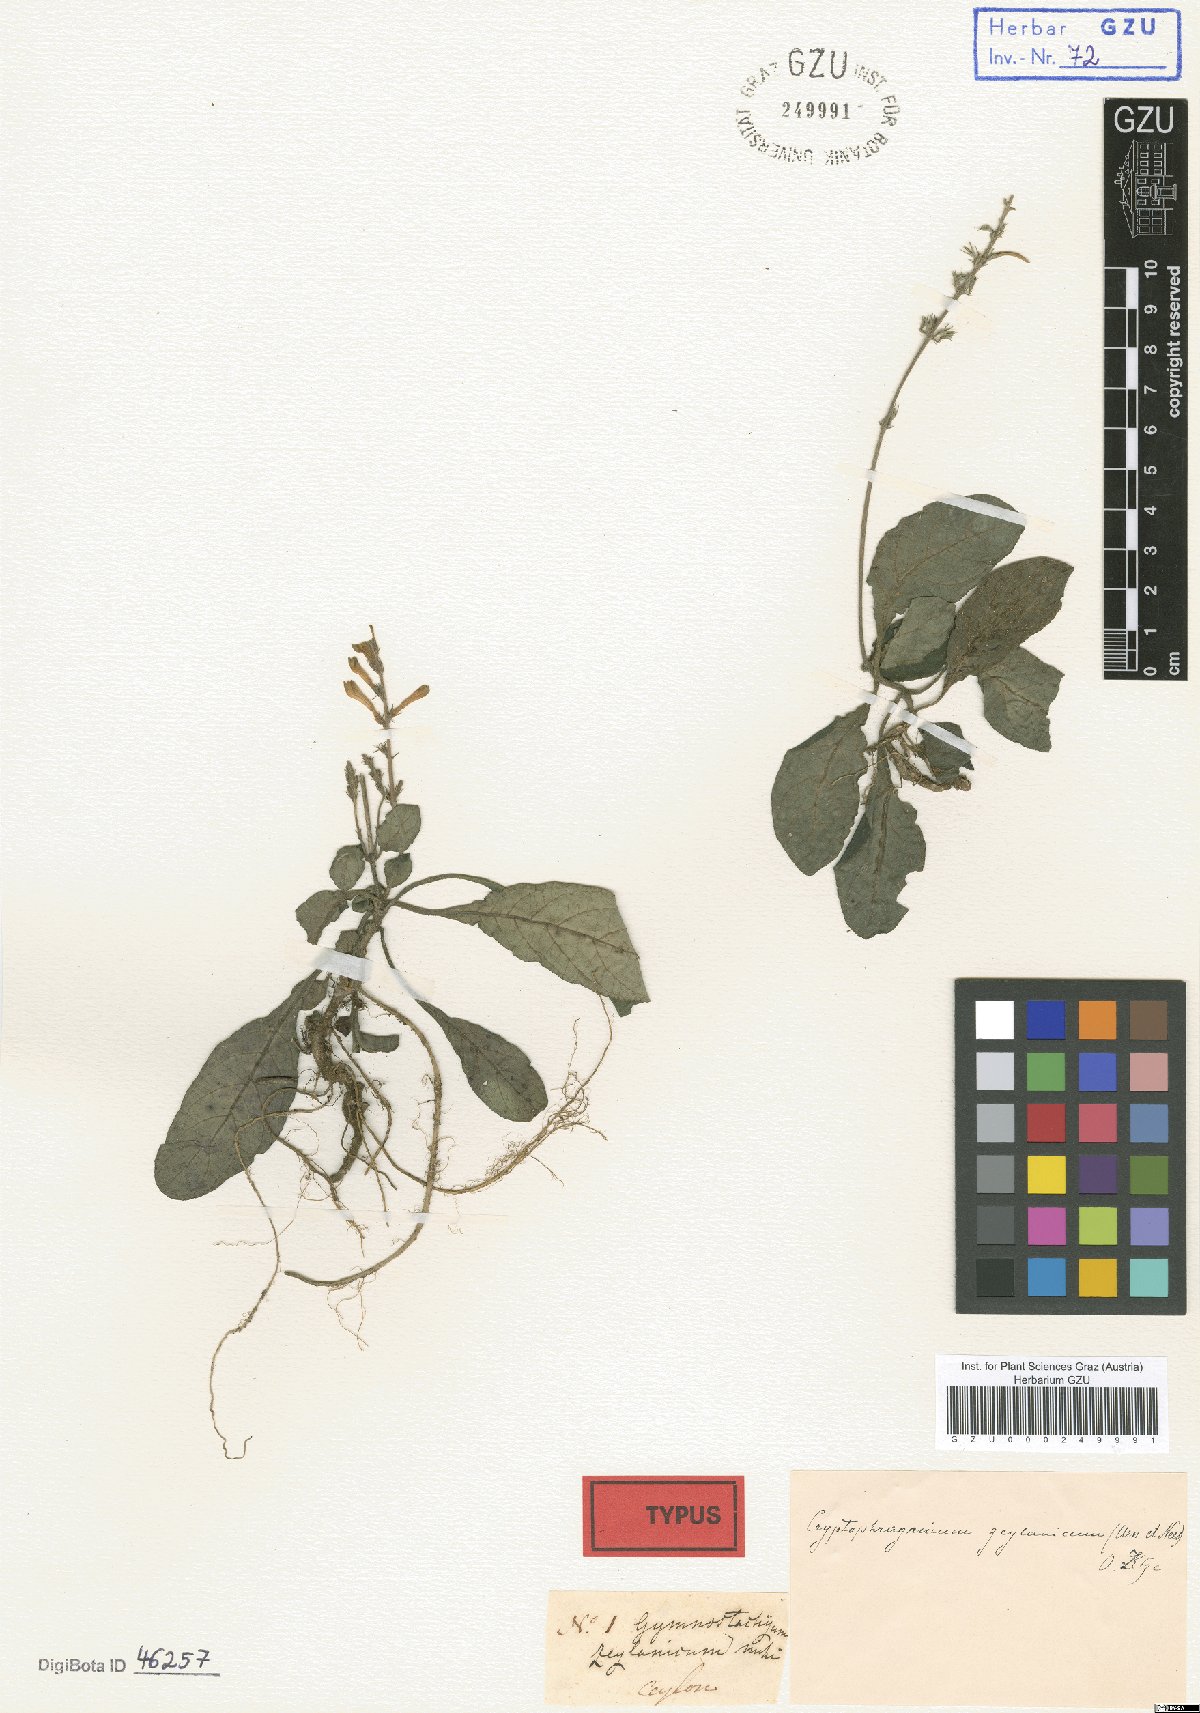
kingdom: Plantae
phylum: Tracheophyta
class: Magnoliopsida
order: Lamiales
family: Acanthaceae
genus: Gymnostachyum
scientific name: Gymnostachyum ceylanicum
